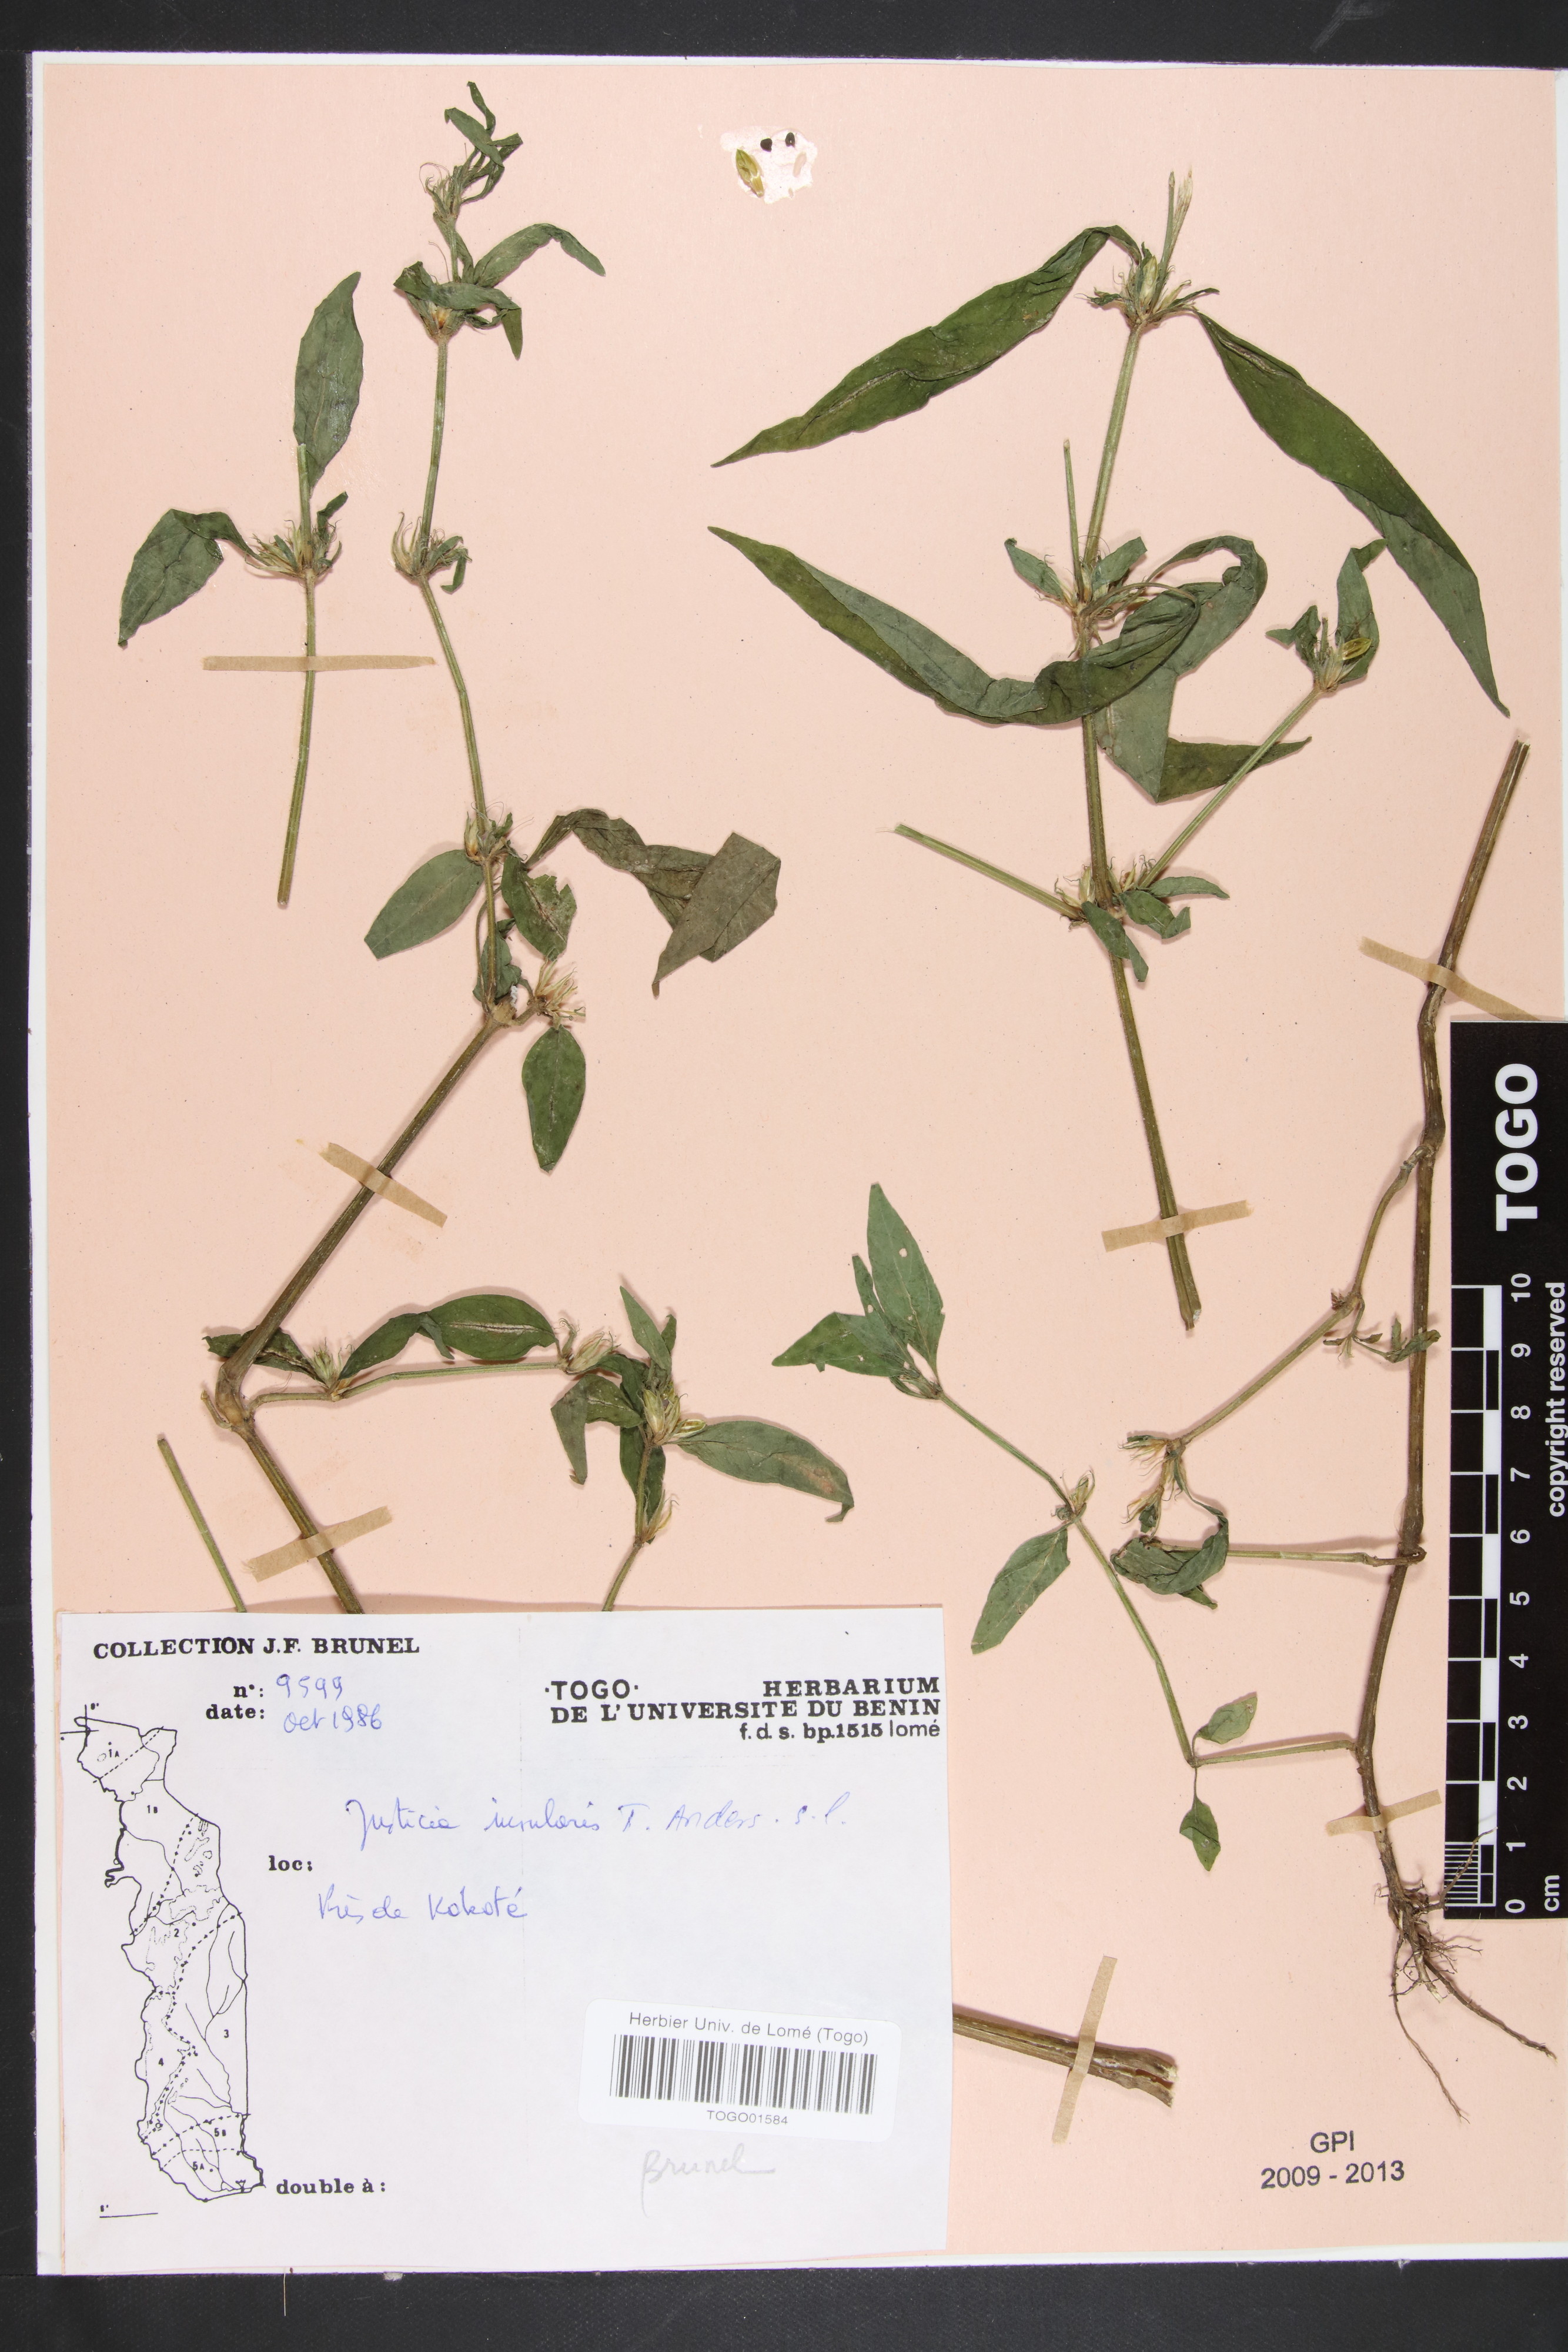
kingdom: Plantae
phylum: Tracheophyta
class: Magnoliopsida
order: Lamiales
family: Acanthaceae
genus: Justicia
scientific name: Justicia insularis
